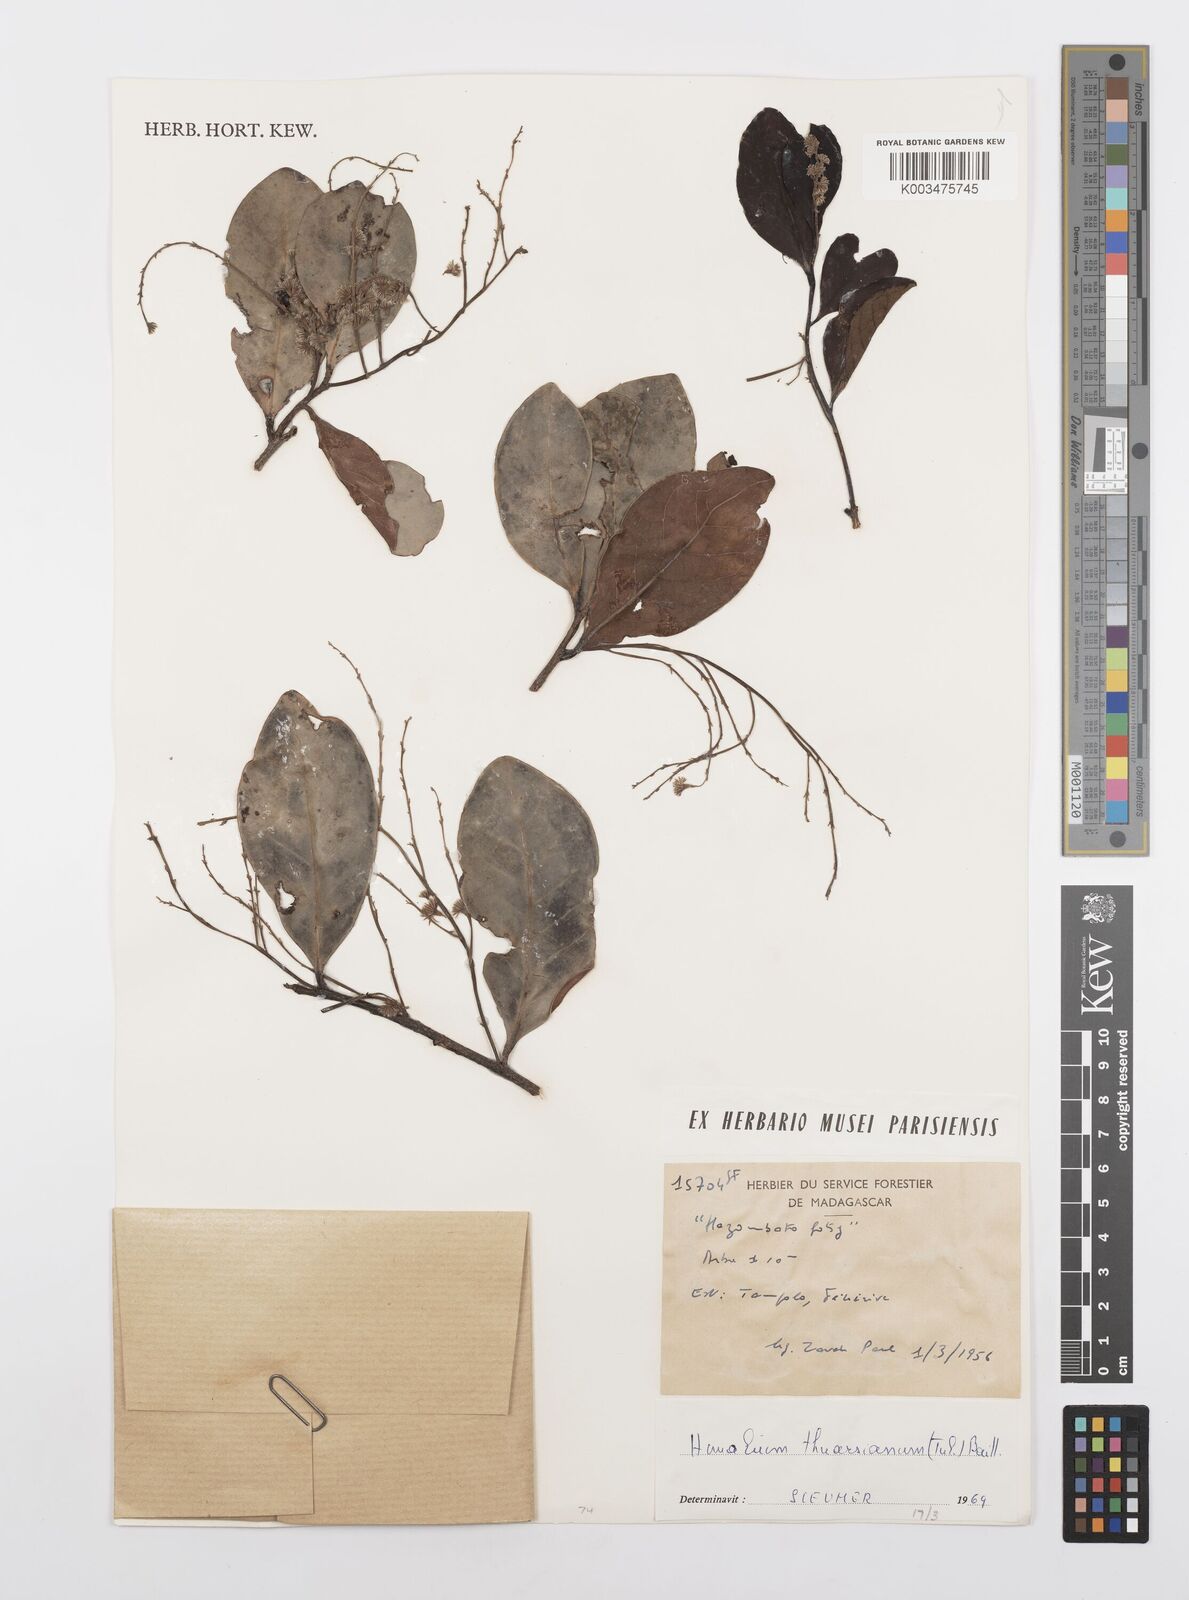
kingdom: Plantae
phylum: Tracheophyta
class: Magnoliopsida
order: Malpighiales
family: Salicaceae
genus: Homalium
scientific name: Homalium thuarsianum
